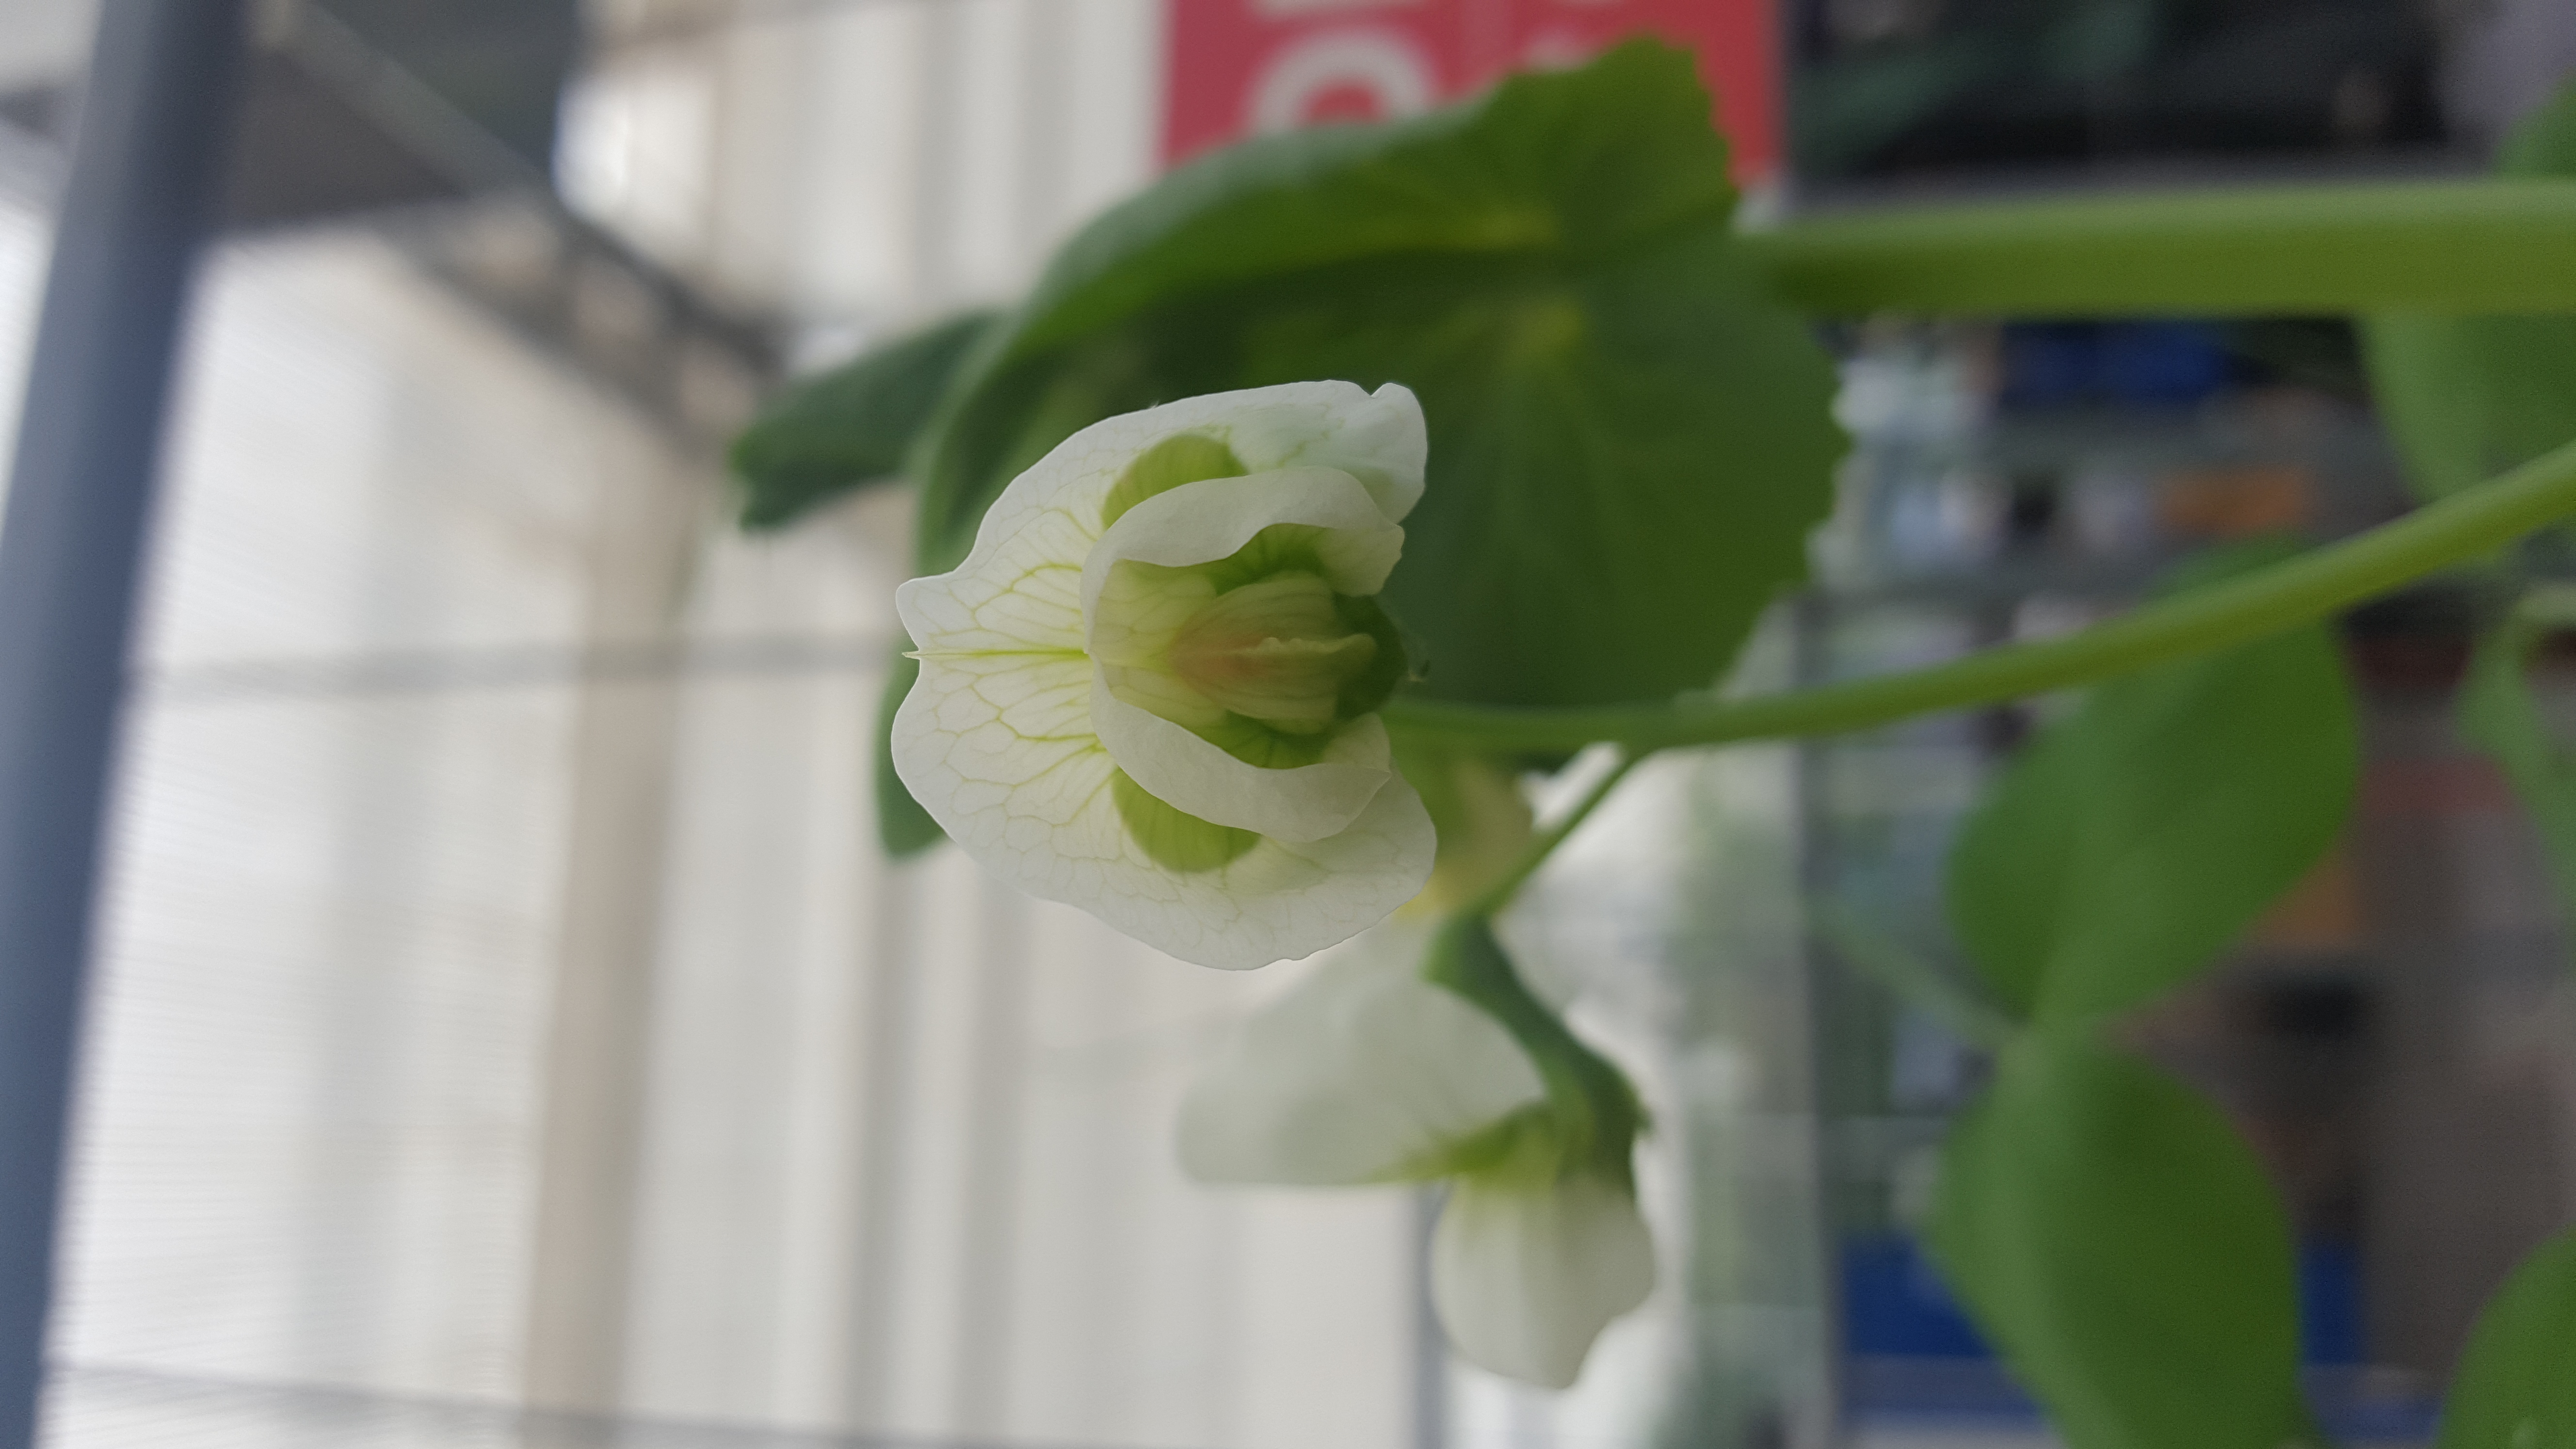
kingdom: Plantae
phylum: Tracheophyta
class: Magnoliopsida
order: Fabales
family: Fabaceae
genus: Lathyrus
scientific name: Lathyrus oleraceus
